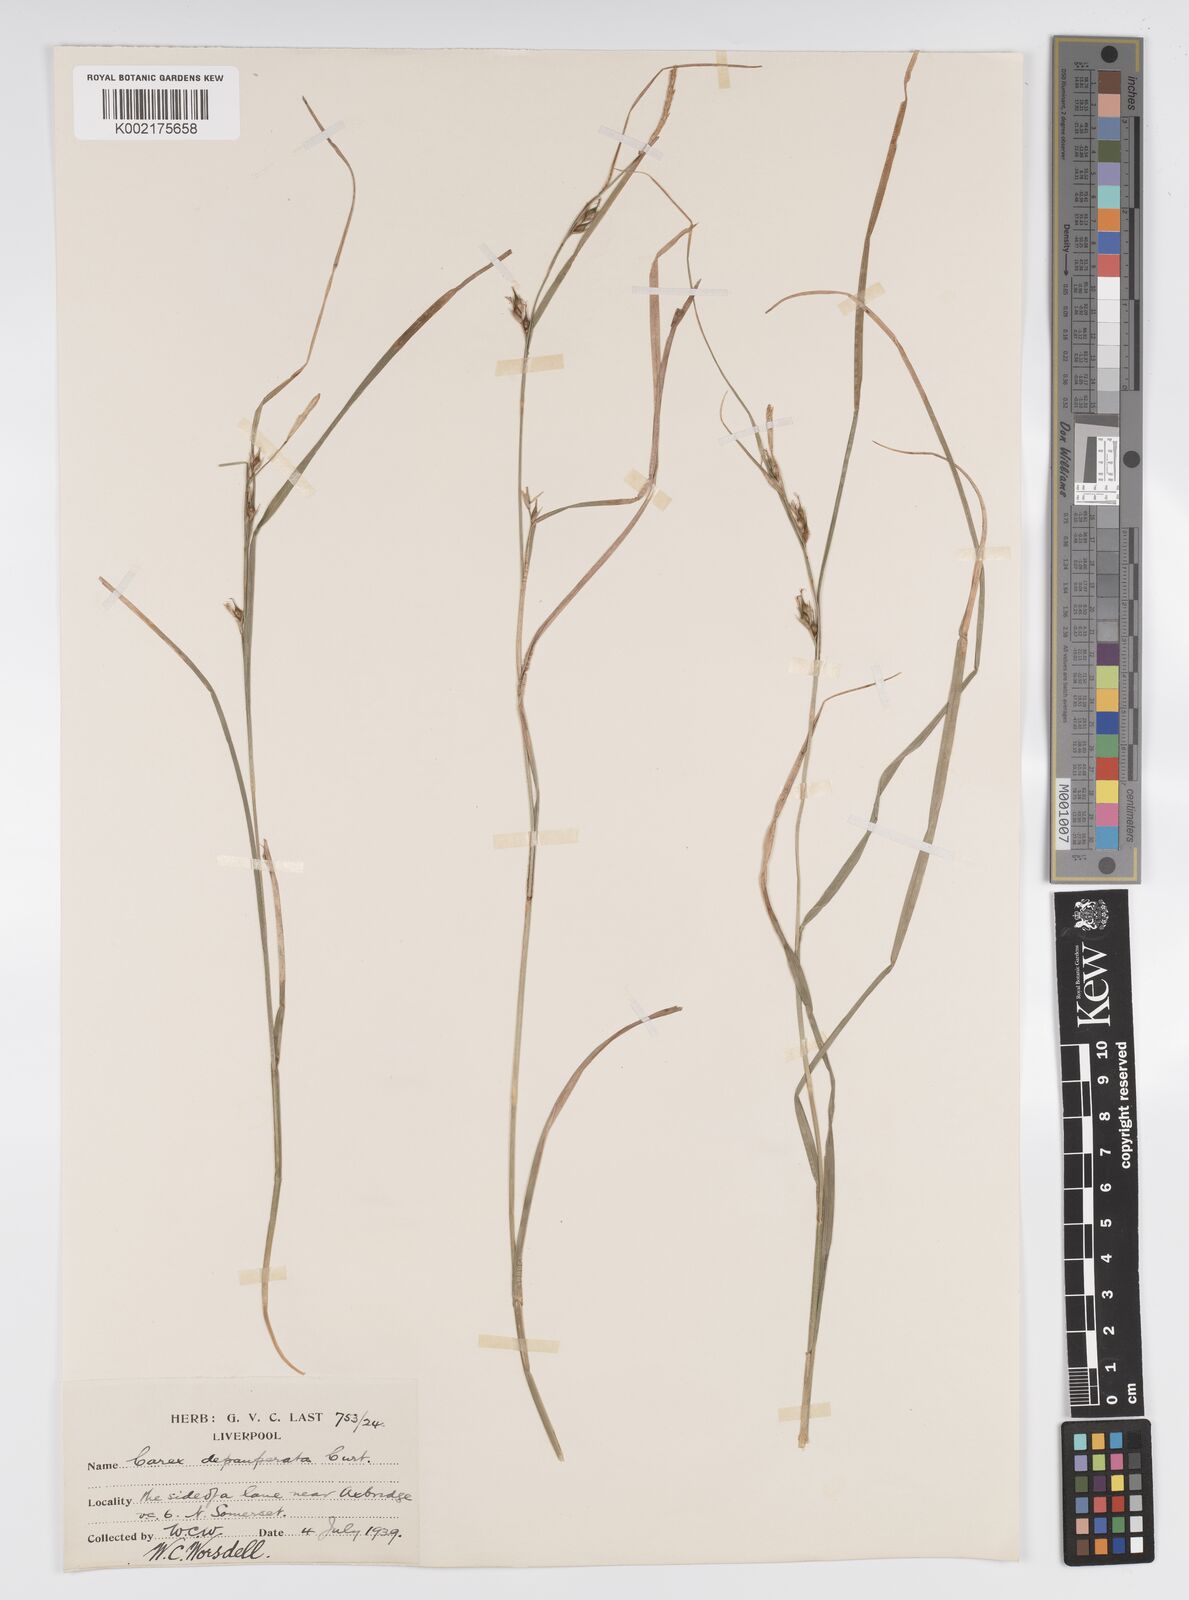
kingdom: Plantae
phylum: Tracheophyta
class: Liliopsida
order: Poales
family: Cyperaceae
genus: Carex
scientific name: Carex depauperata
